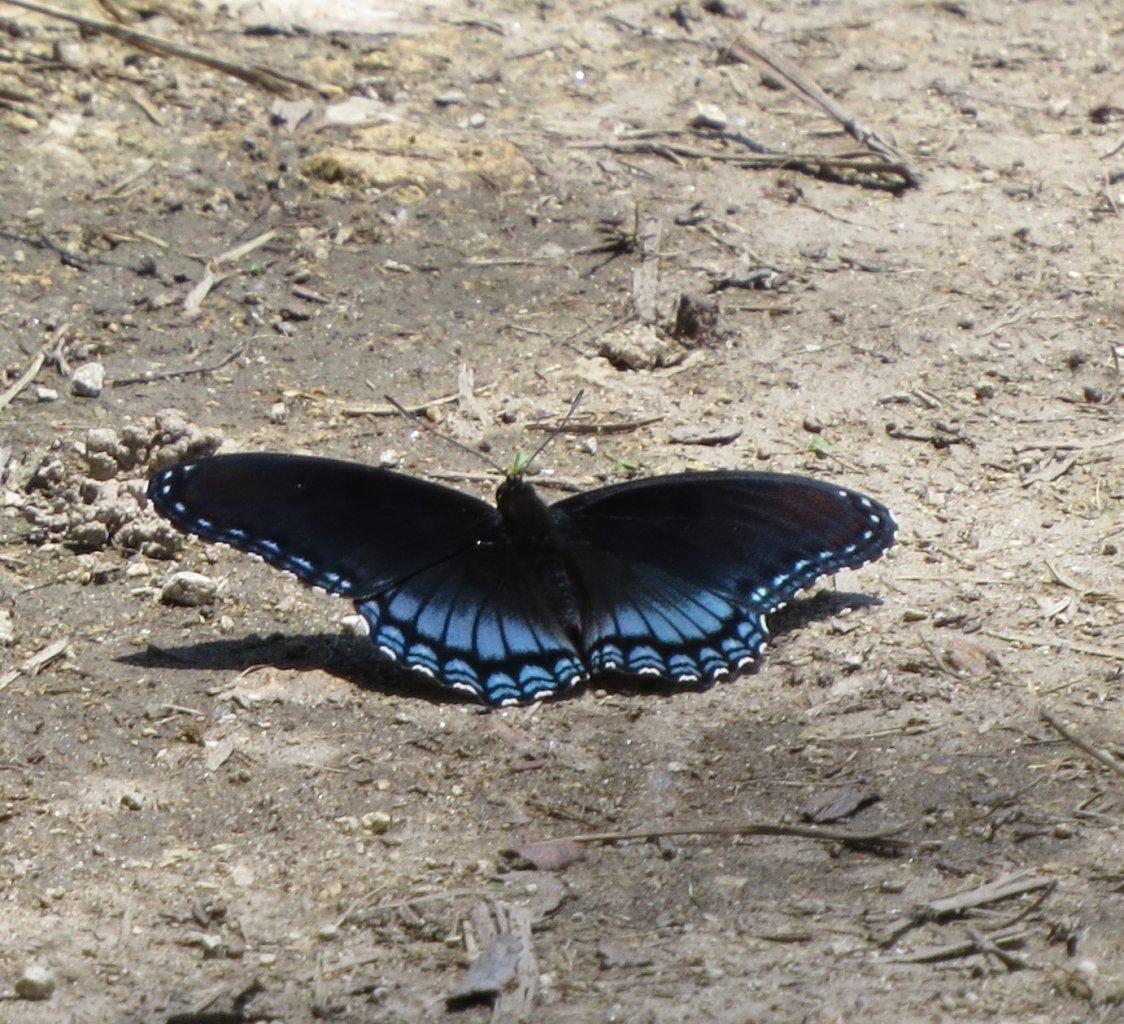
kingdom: Animalia
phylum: Arthropoda
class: Insecta
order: Lepidoptera
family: Nymphalidae
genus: Limenitis
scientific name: Limenitis astyanax
